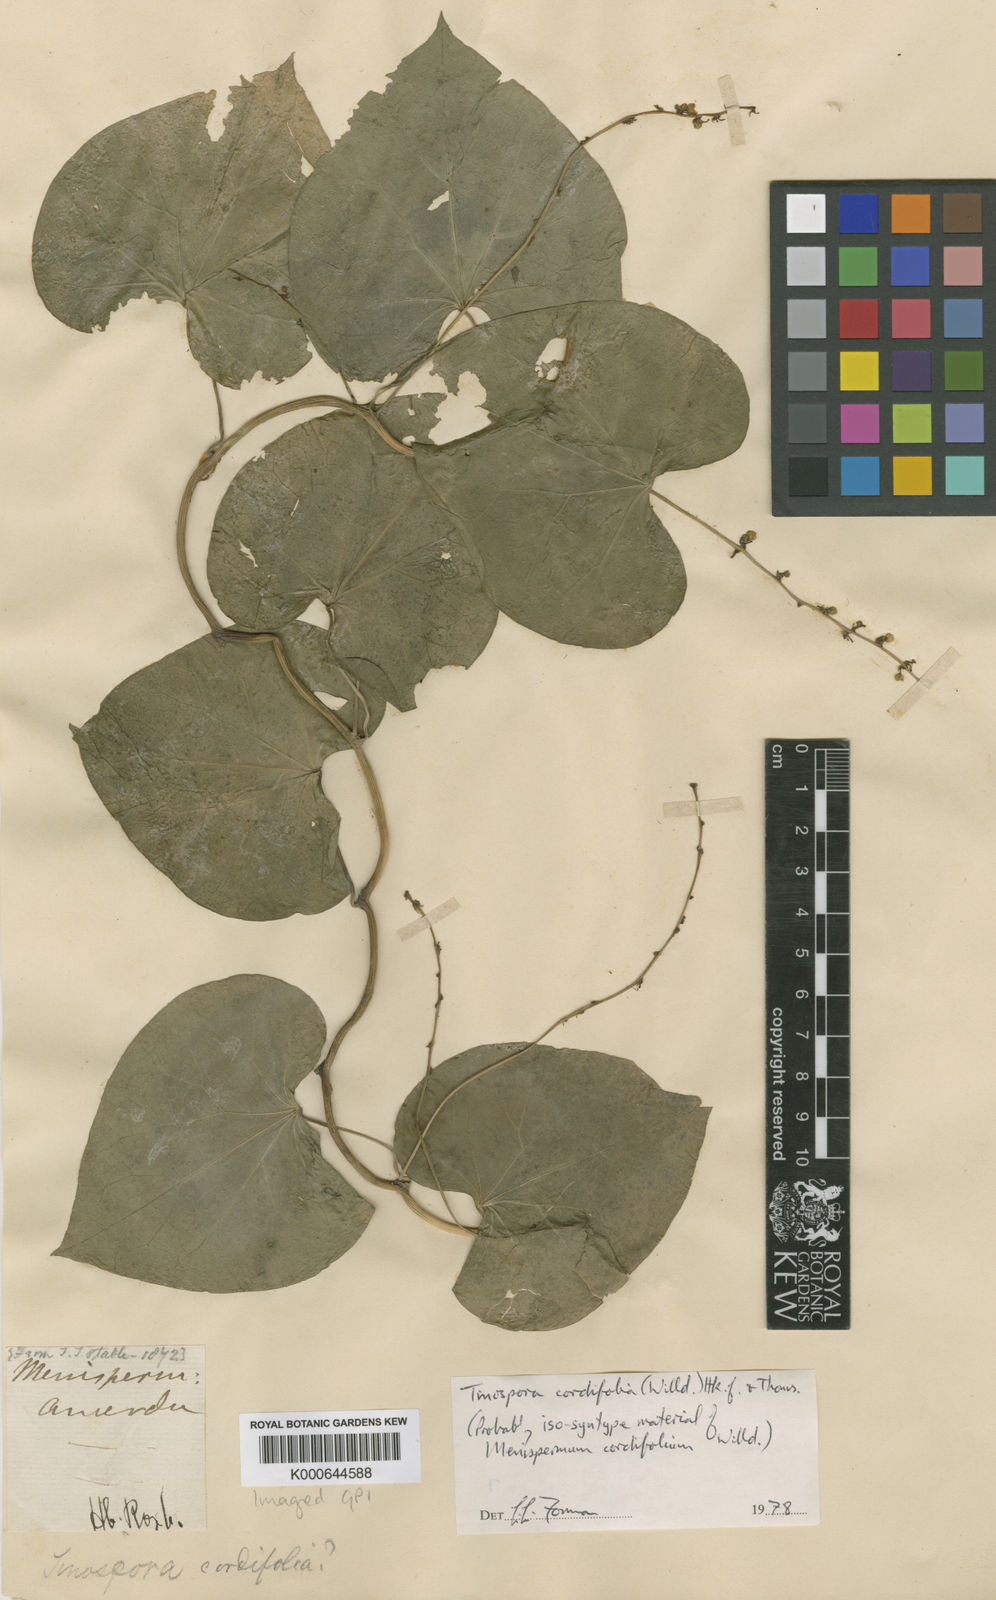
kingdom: Plantae
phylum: Tracheophyta
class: Magnoliopsida
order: Ranunculales
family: Menispermaceae
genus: Tinospora
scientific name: Tinospora cordifolia
